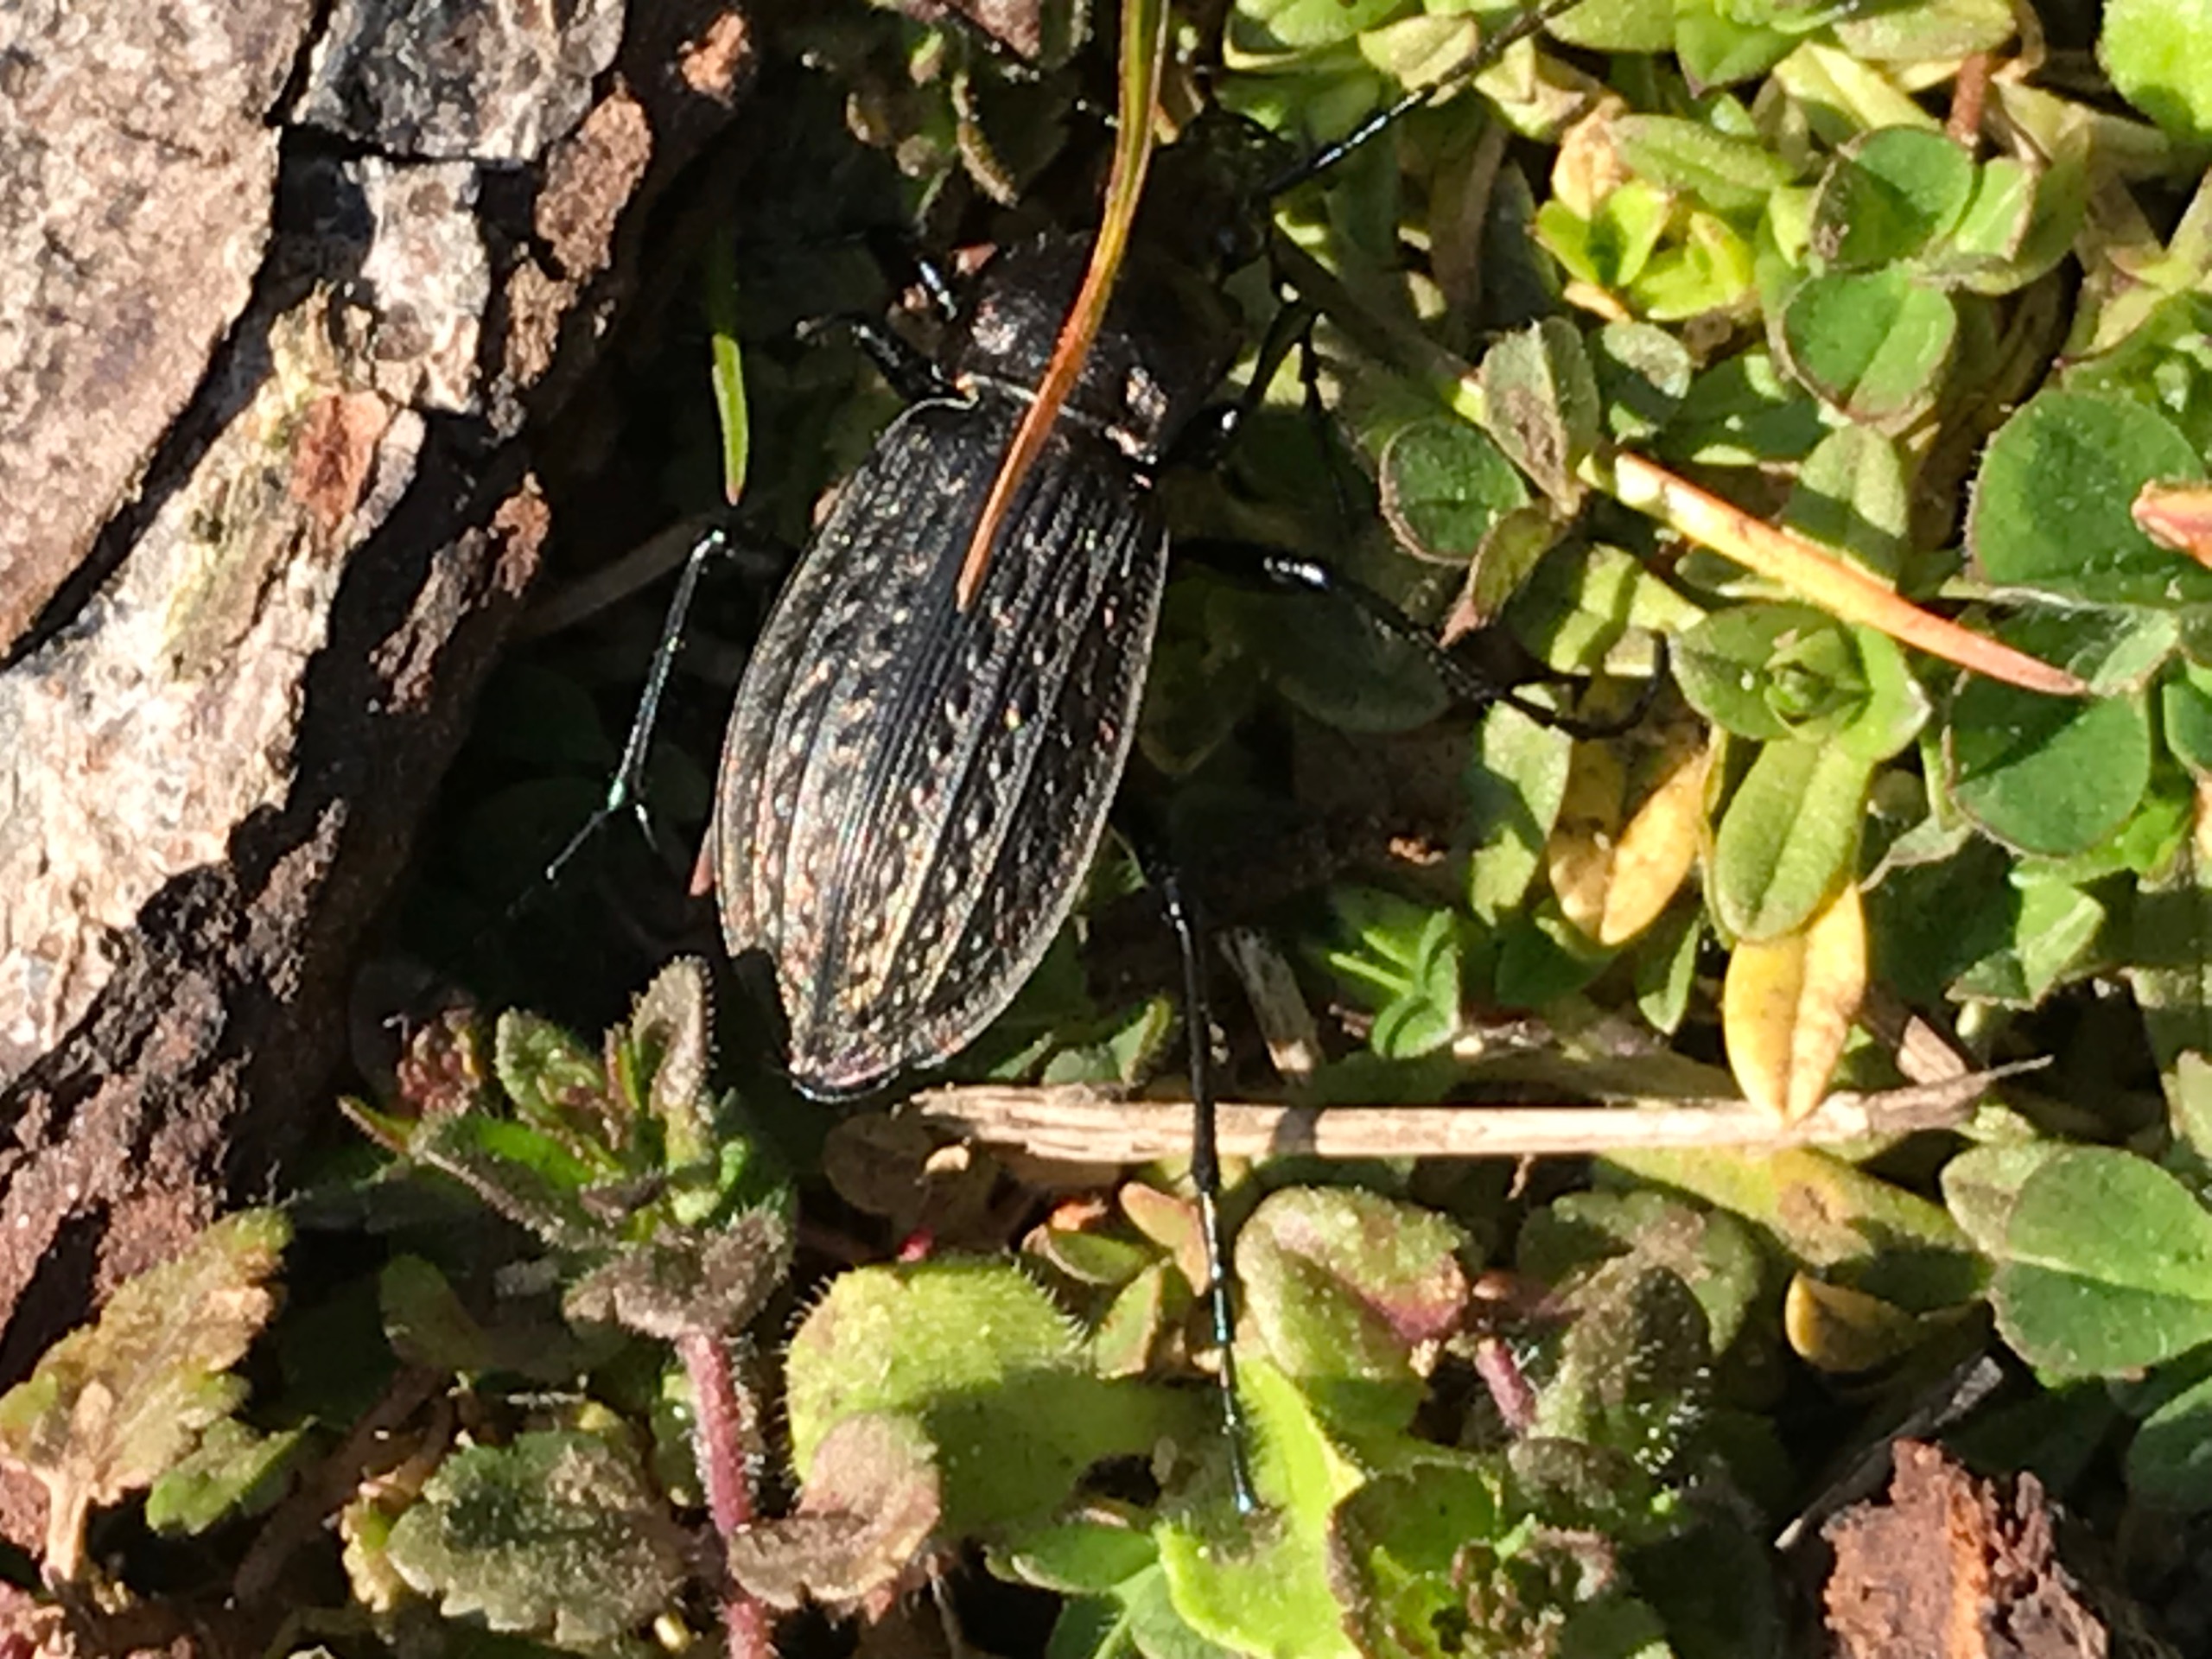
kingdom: Animalia
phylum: Arthropoda
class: Insecta
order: Coleoptera
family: Carabidae
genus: Carabus
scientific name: Carabus granulatus
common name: Kornet løber
